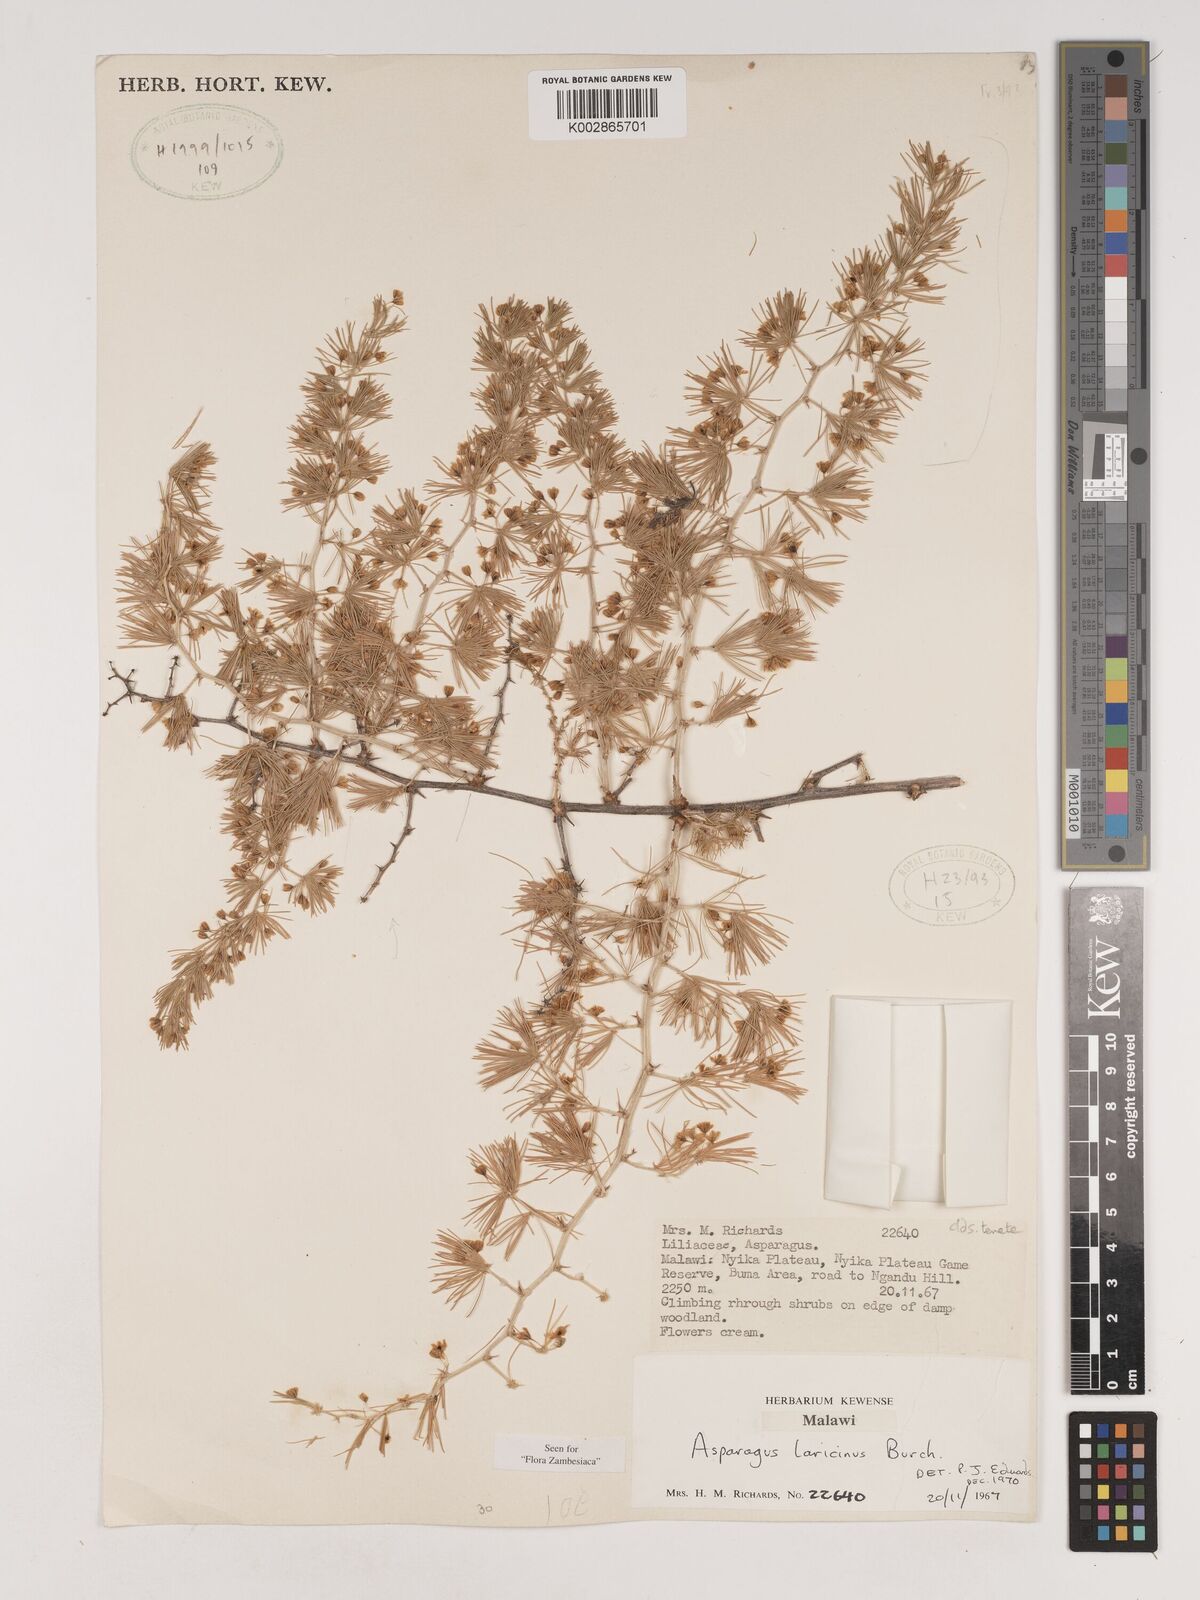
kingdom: Plantae
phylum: Tracheophyta
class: Liliopsida
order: Asparagales
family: Asparagaceae
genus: Asparagus
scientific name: Asparagus laricinus
